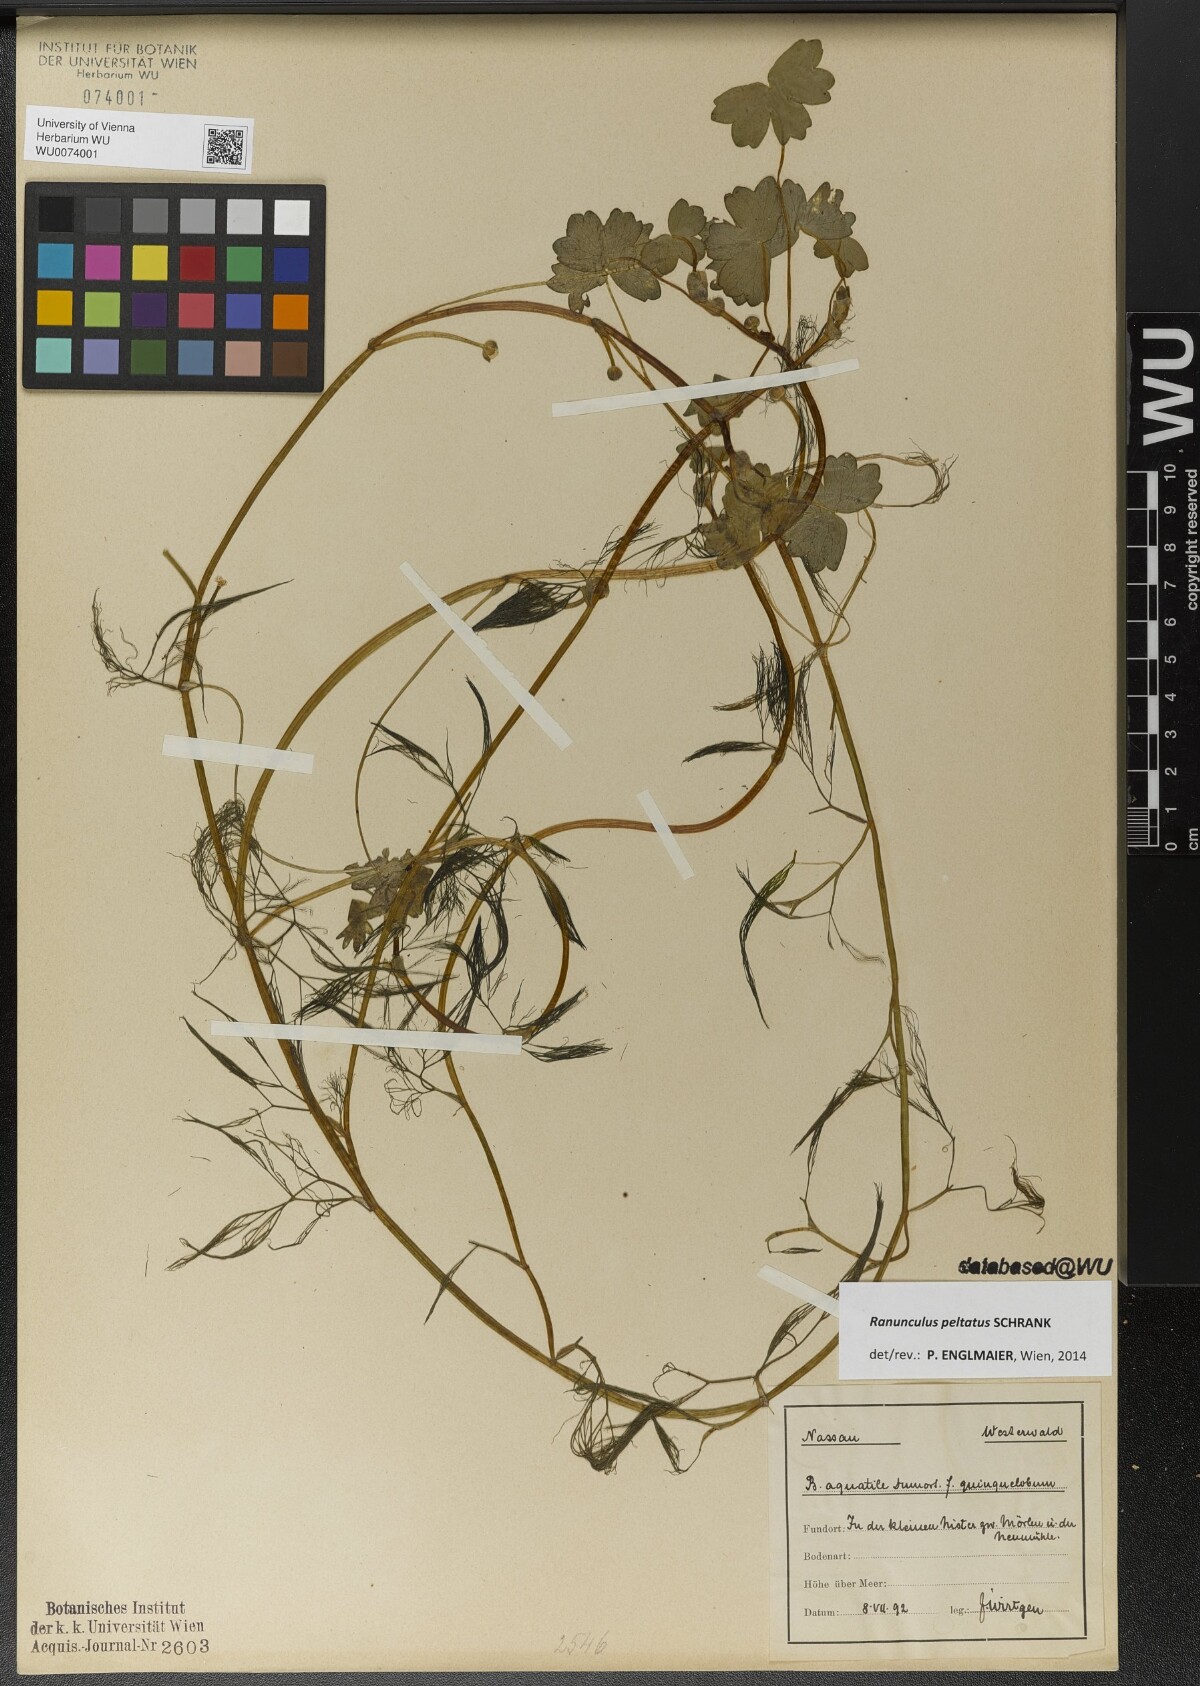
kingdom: Plantae
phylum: Tracheophyta
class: Magnoliopsida
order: Ranunculales
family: Ranunculaceae
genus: Ranunculus
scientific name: Ranunculus peltatus
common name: Pond water-crowfoot
